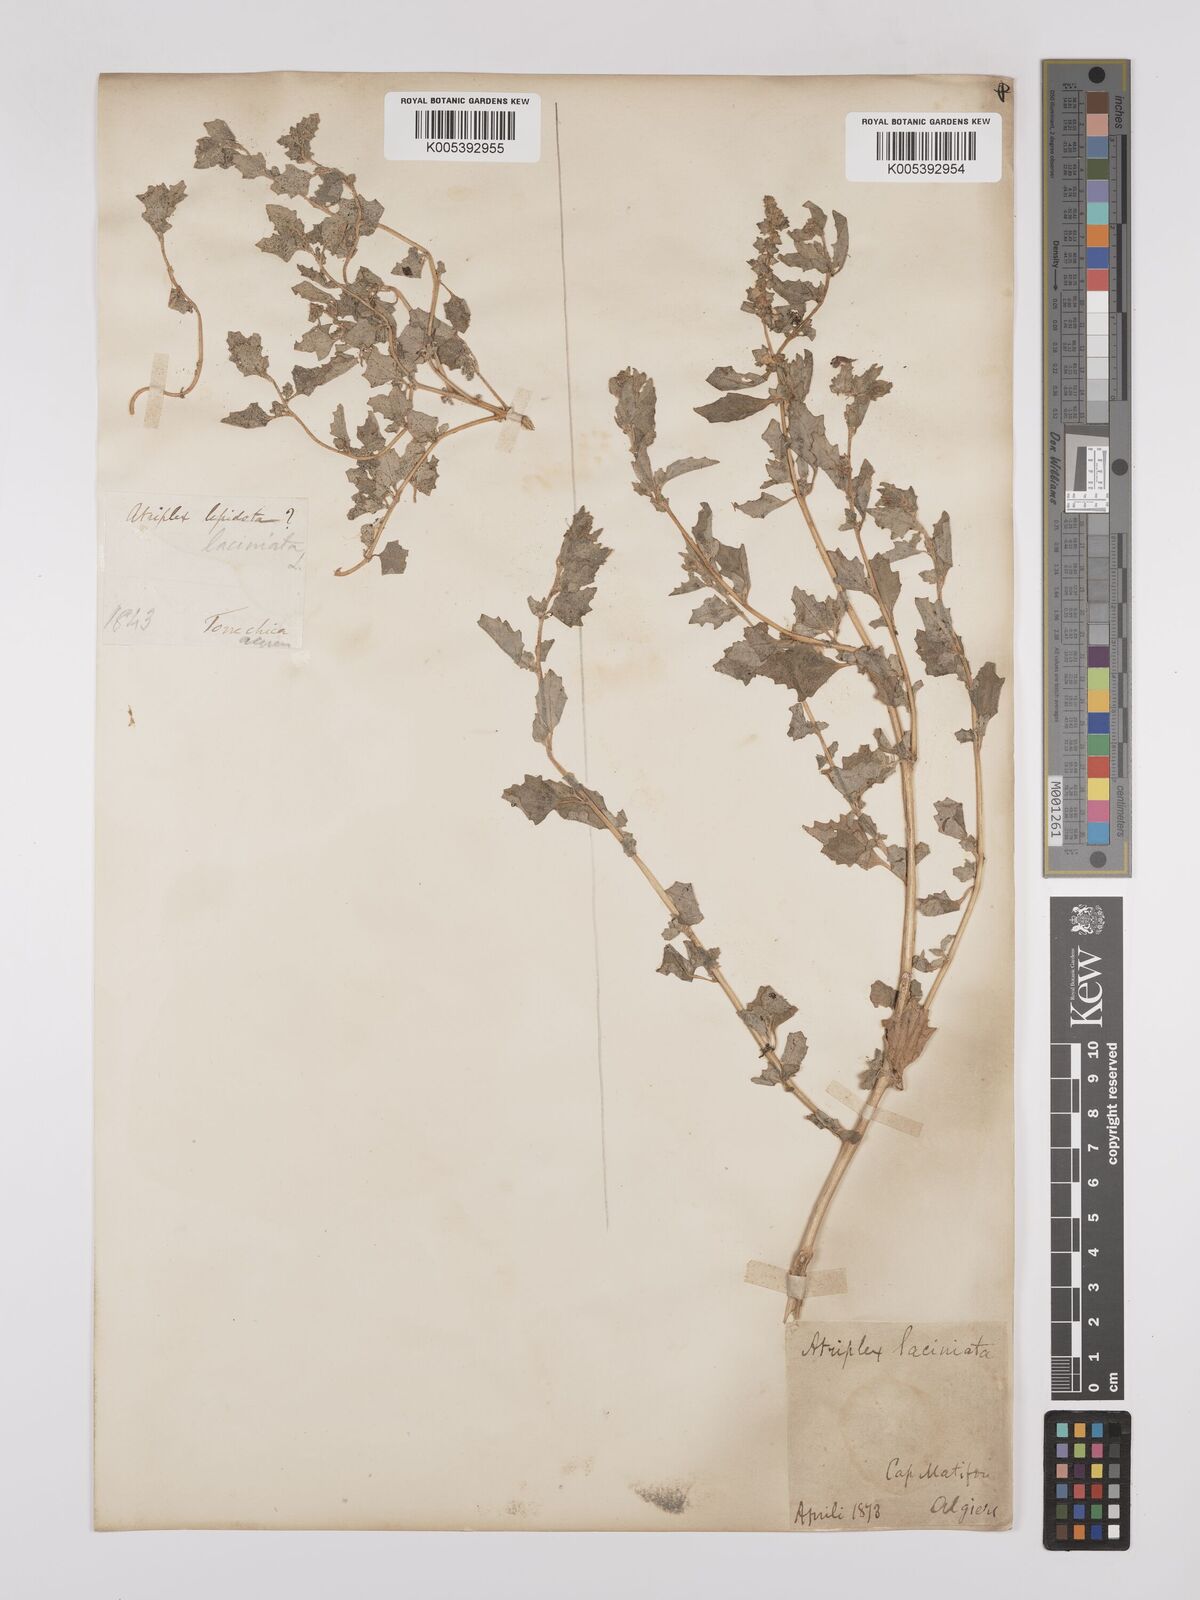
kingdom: Plantae
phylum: Tracheophyta
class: Magnoliopsida
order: Caryophyllales
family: Amaranthaceae
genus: Atriplex
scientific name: Atriplex tatarica
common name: Tatarian orache
